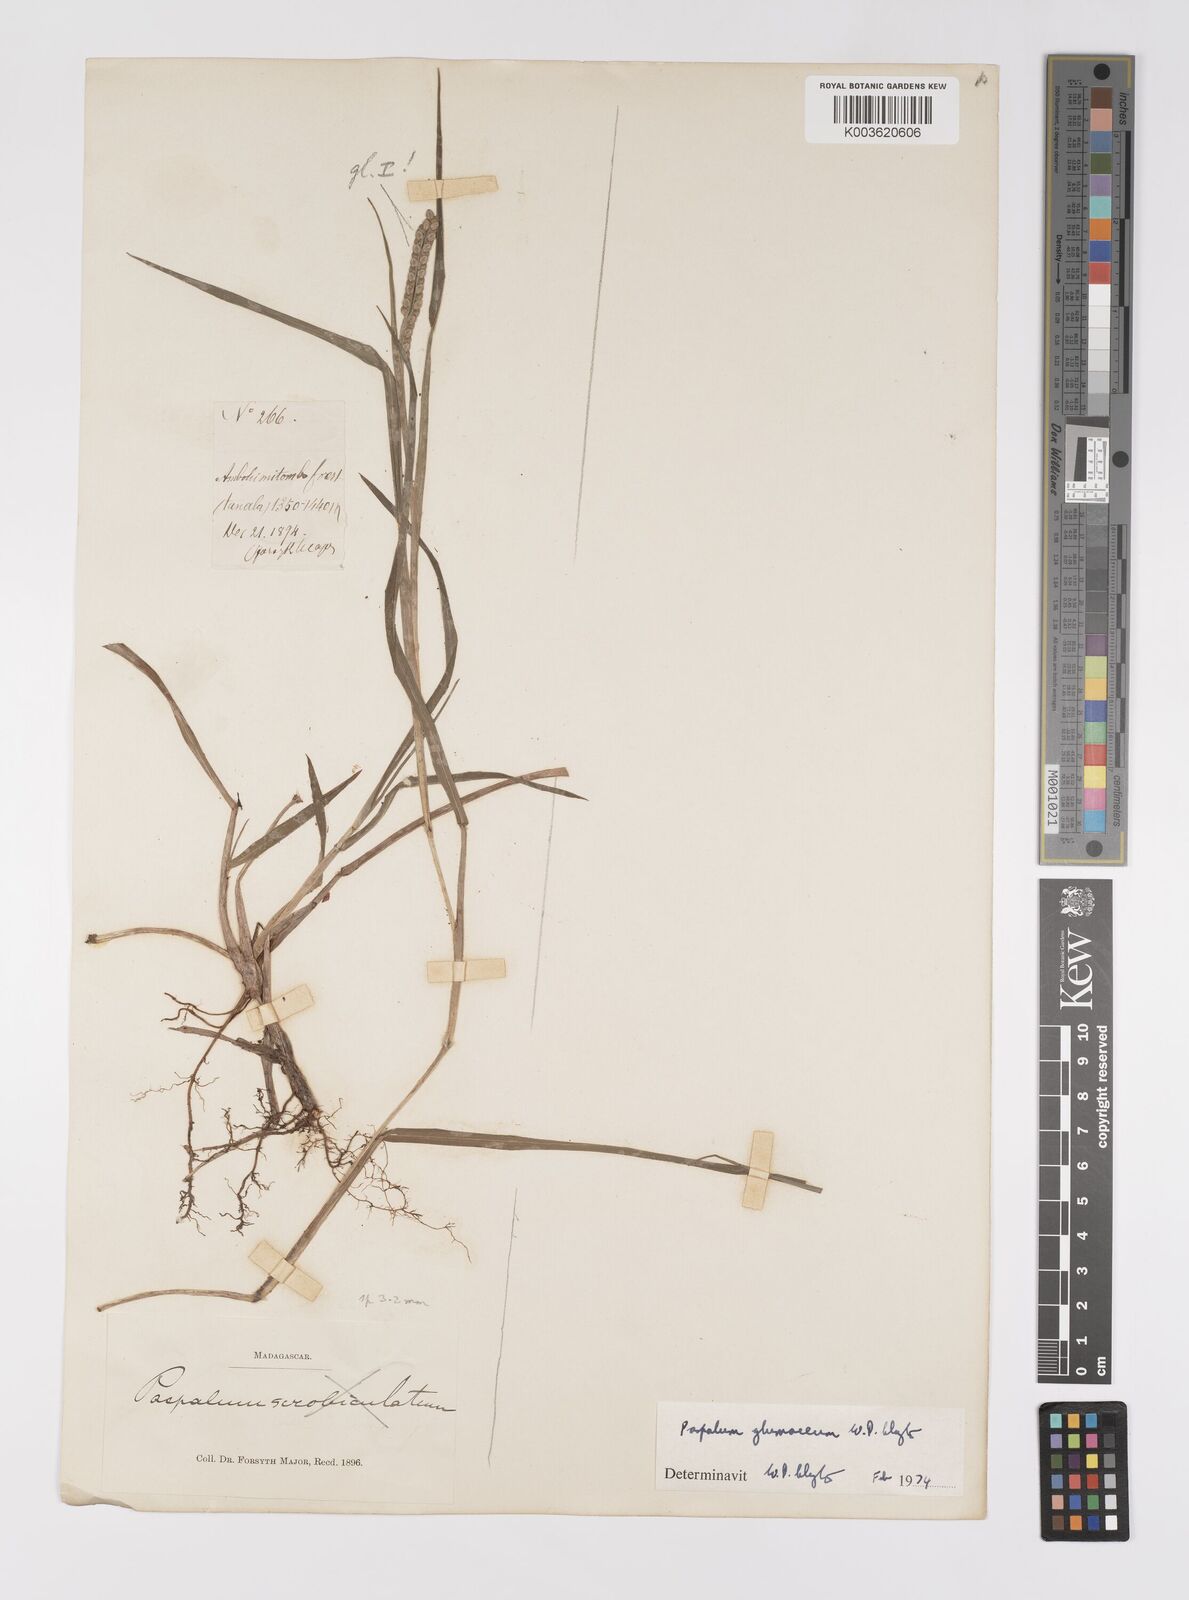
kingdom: Plantae
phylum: Tracheophyta
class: Liliopsida
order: Poales
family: Poaceae
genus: Paspalum
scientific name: Paspalum glumaceum
